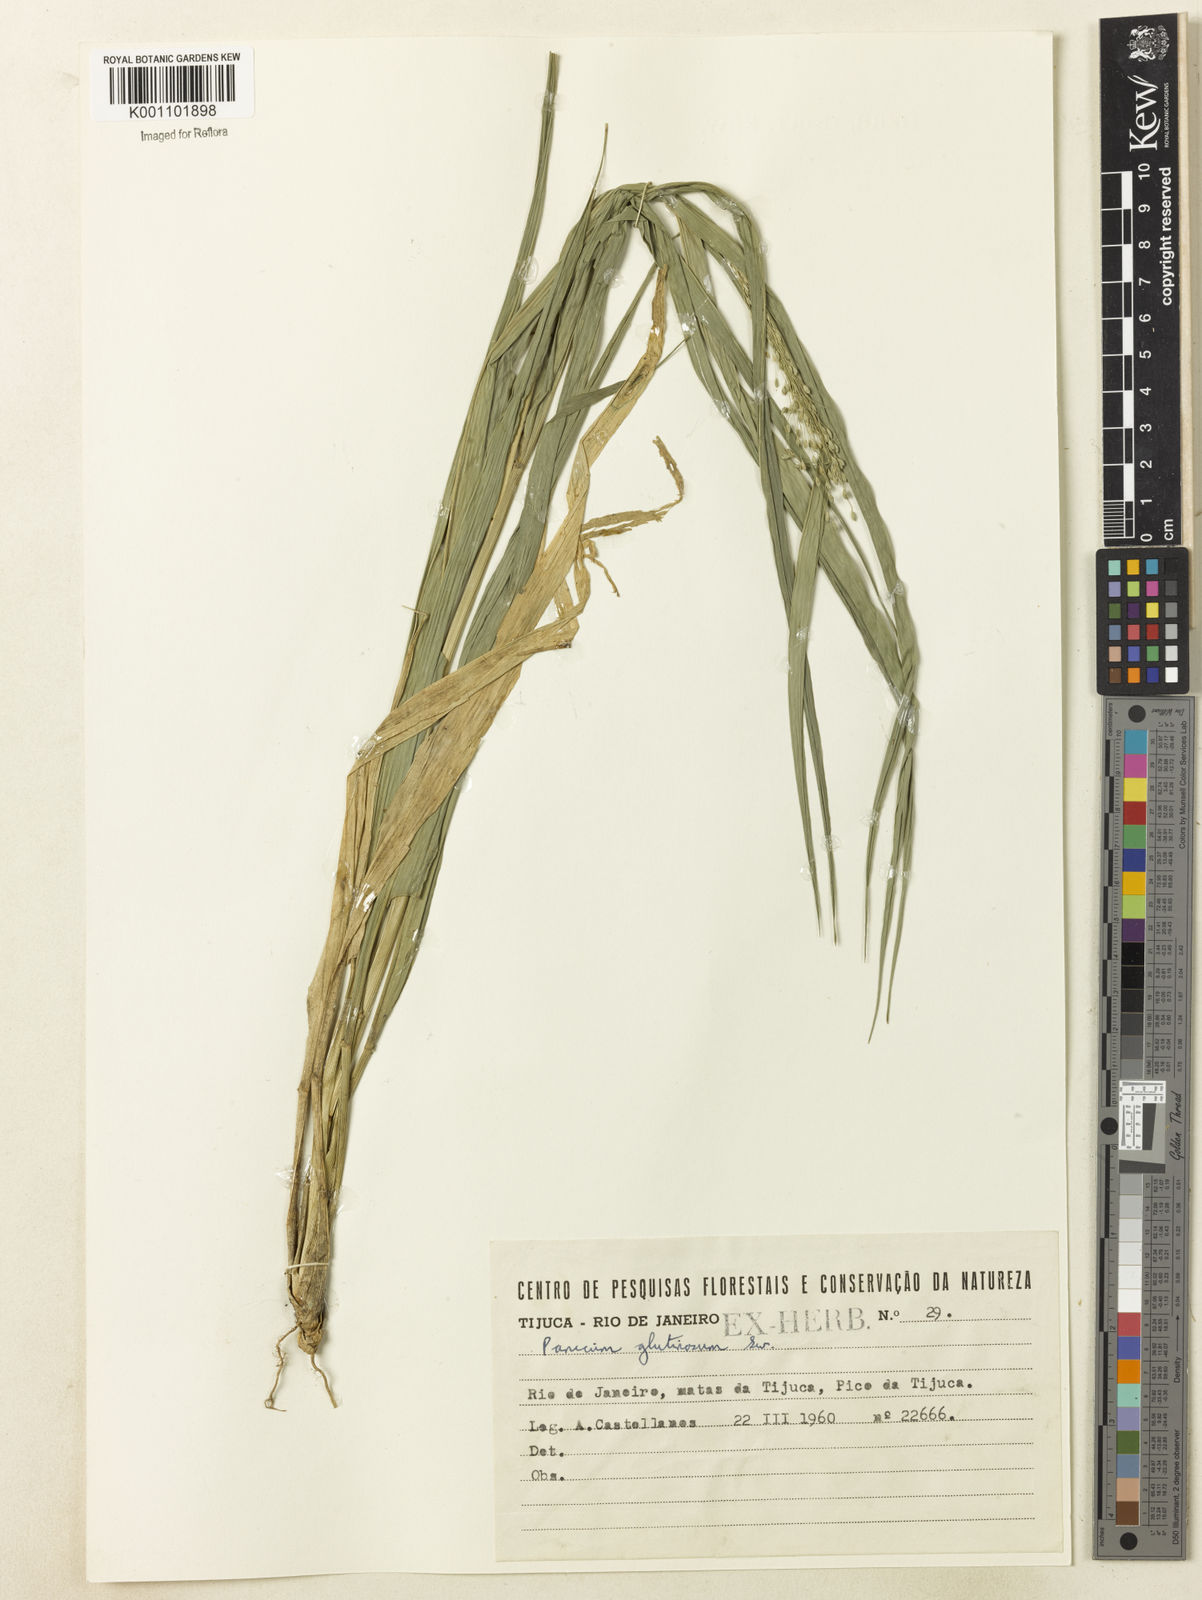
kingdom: Plantae
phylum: Tracheophyta
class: Liliopsida
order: Poales
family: Poaceae
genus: Homolepis
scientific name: Homolepis glutinosa
